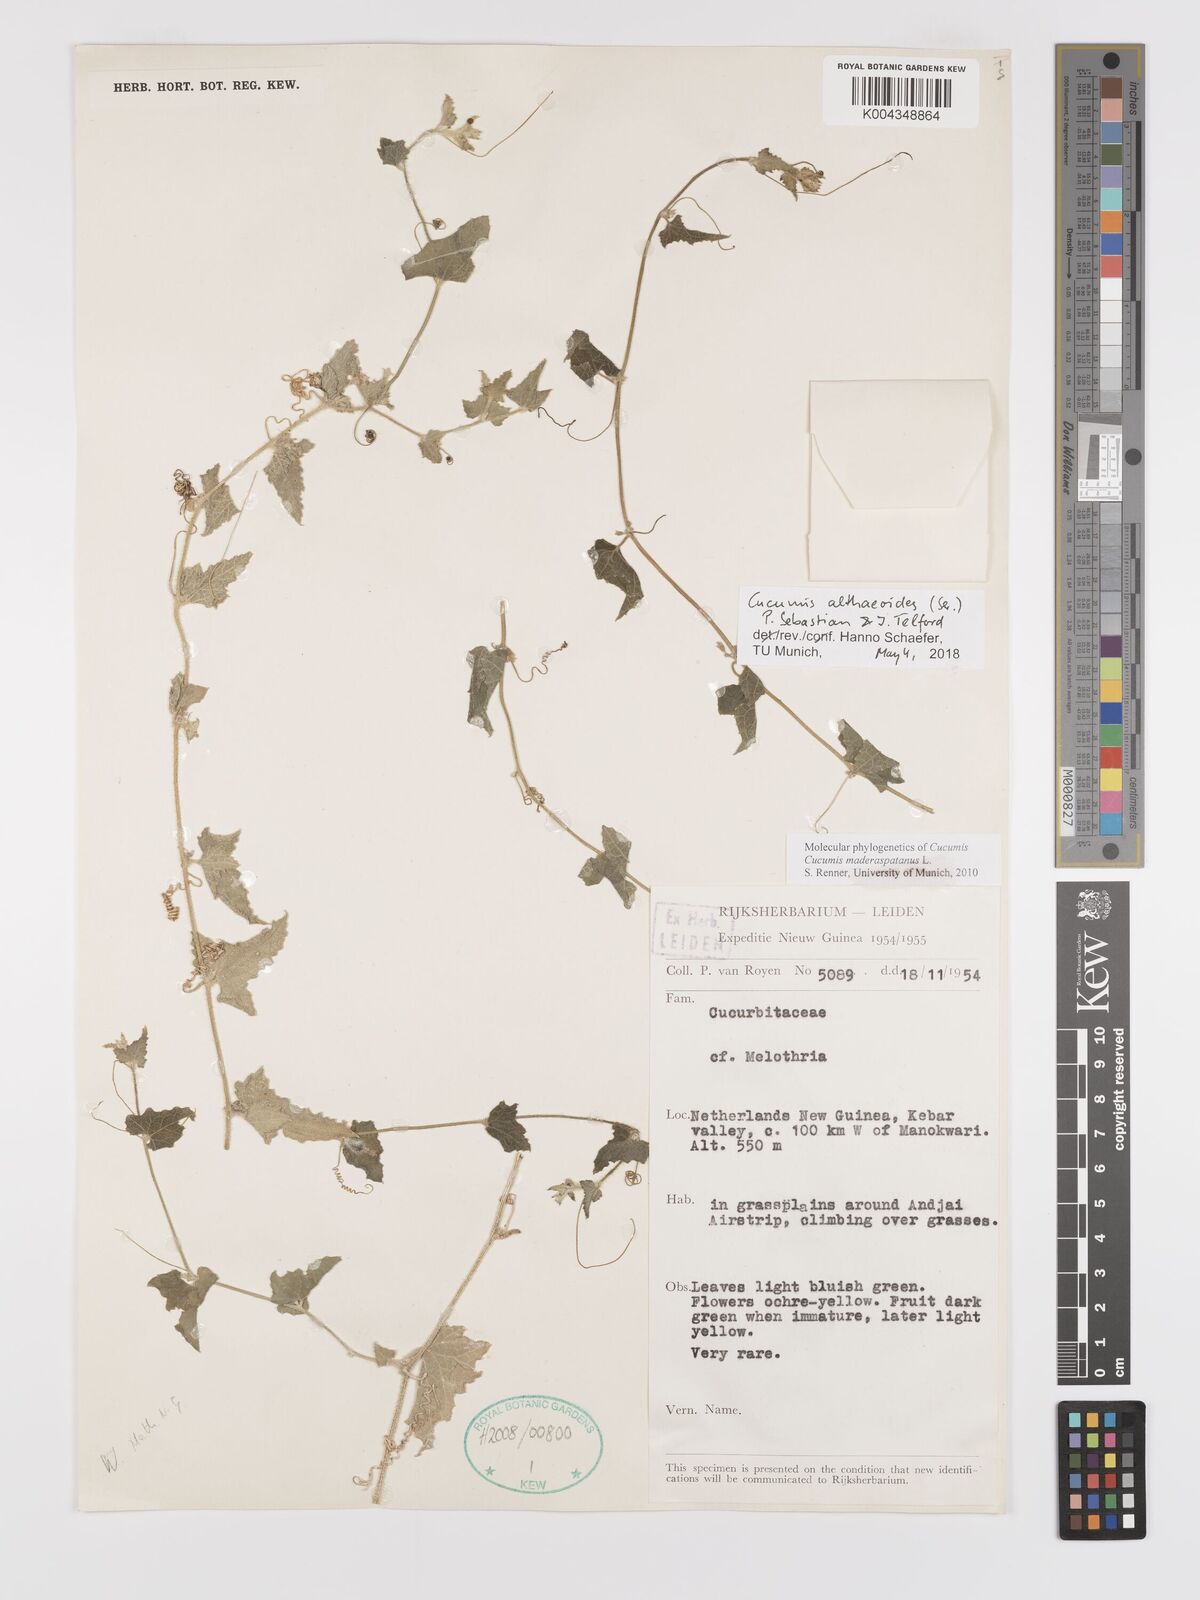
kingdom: Plantae
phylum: Tracheophyta
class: Magnoliopsida
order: Cucurbitales
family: Cucurbitaceae
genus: Cucumis
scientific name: Cucumis maderaspatanus
